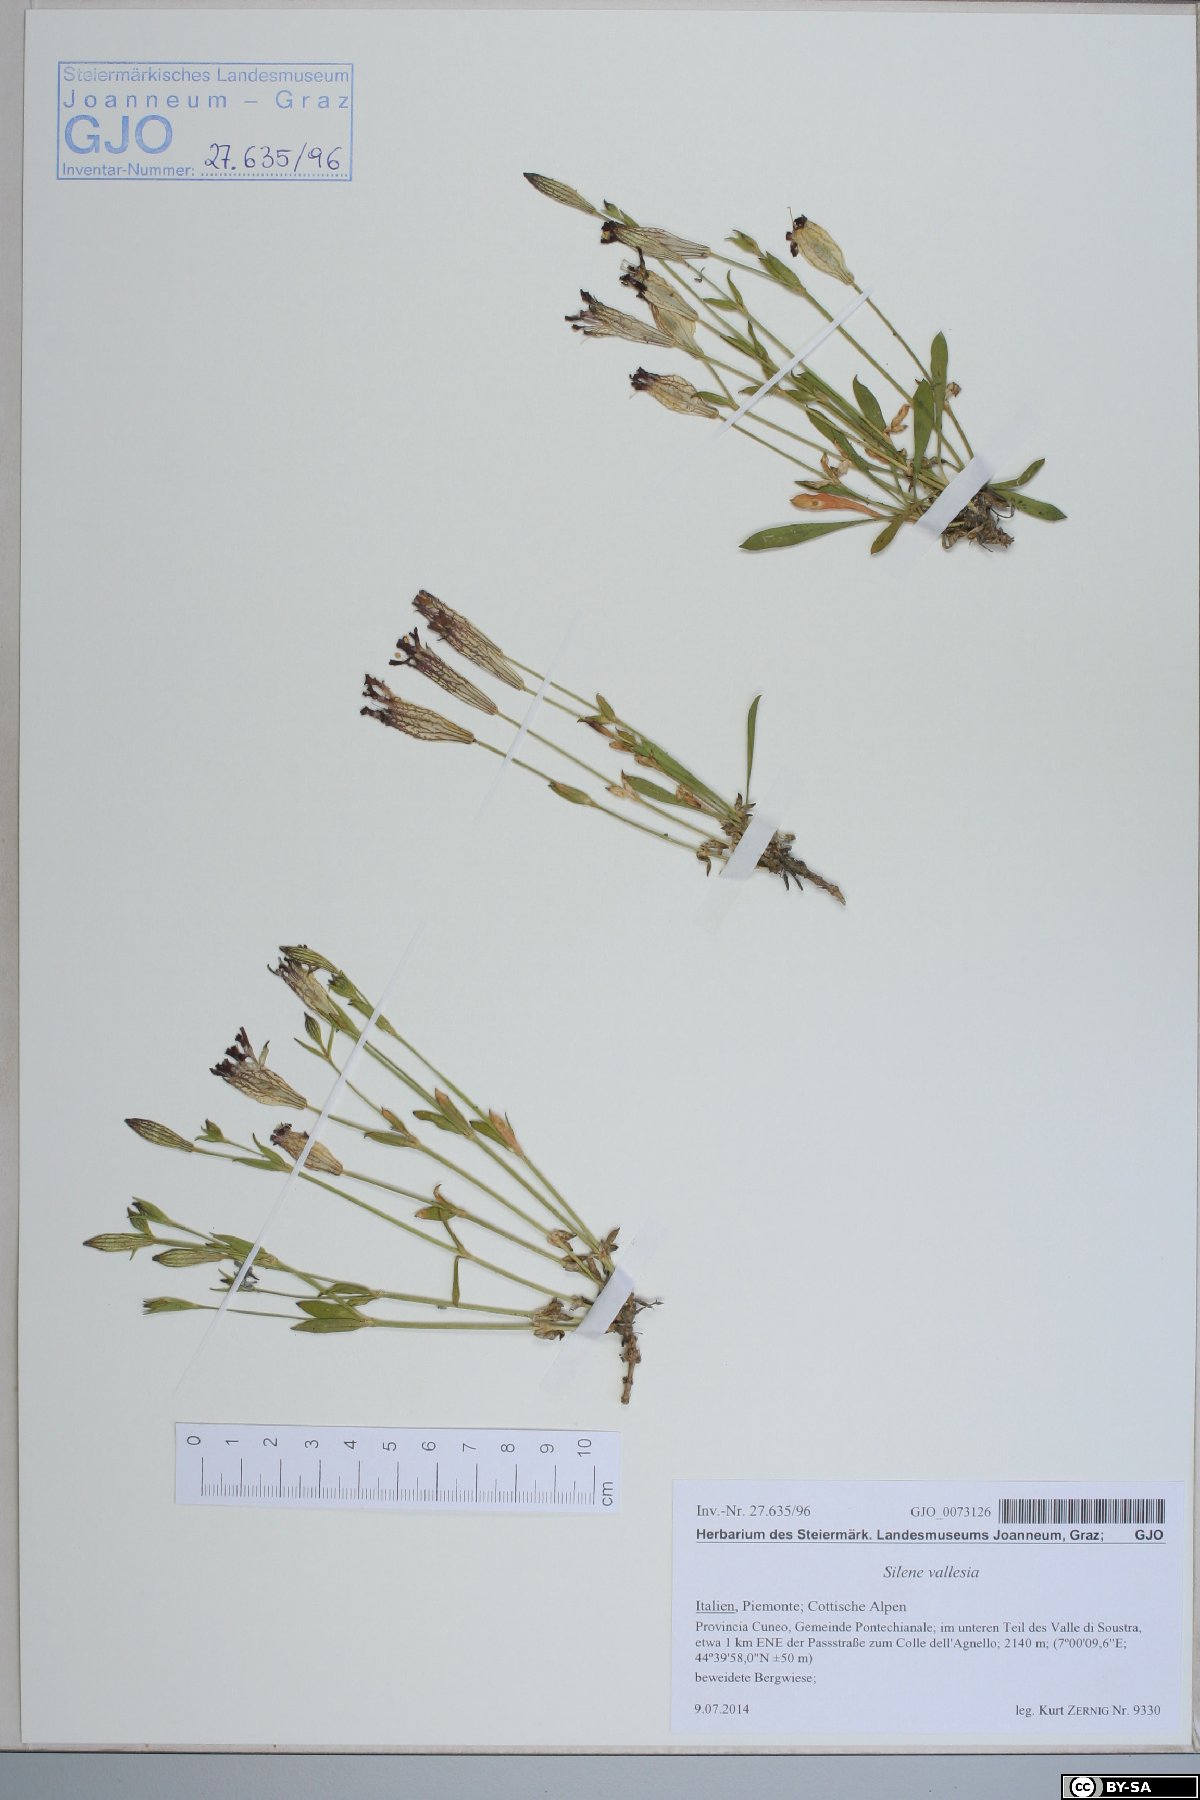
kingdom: Plantae
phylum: Tracheophyta
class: Magnoliopsida
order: Caryophyllales
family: Caryophyllaceae
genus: Silene
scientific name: Silene vallesia
